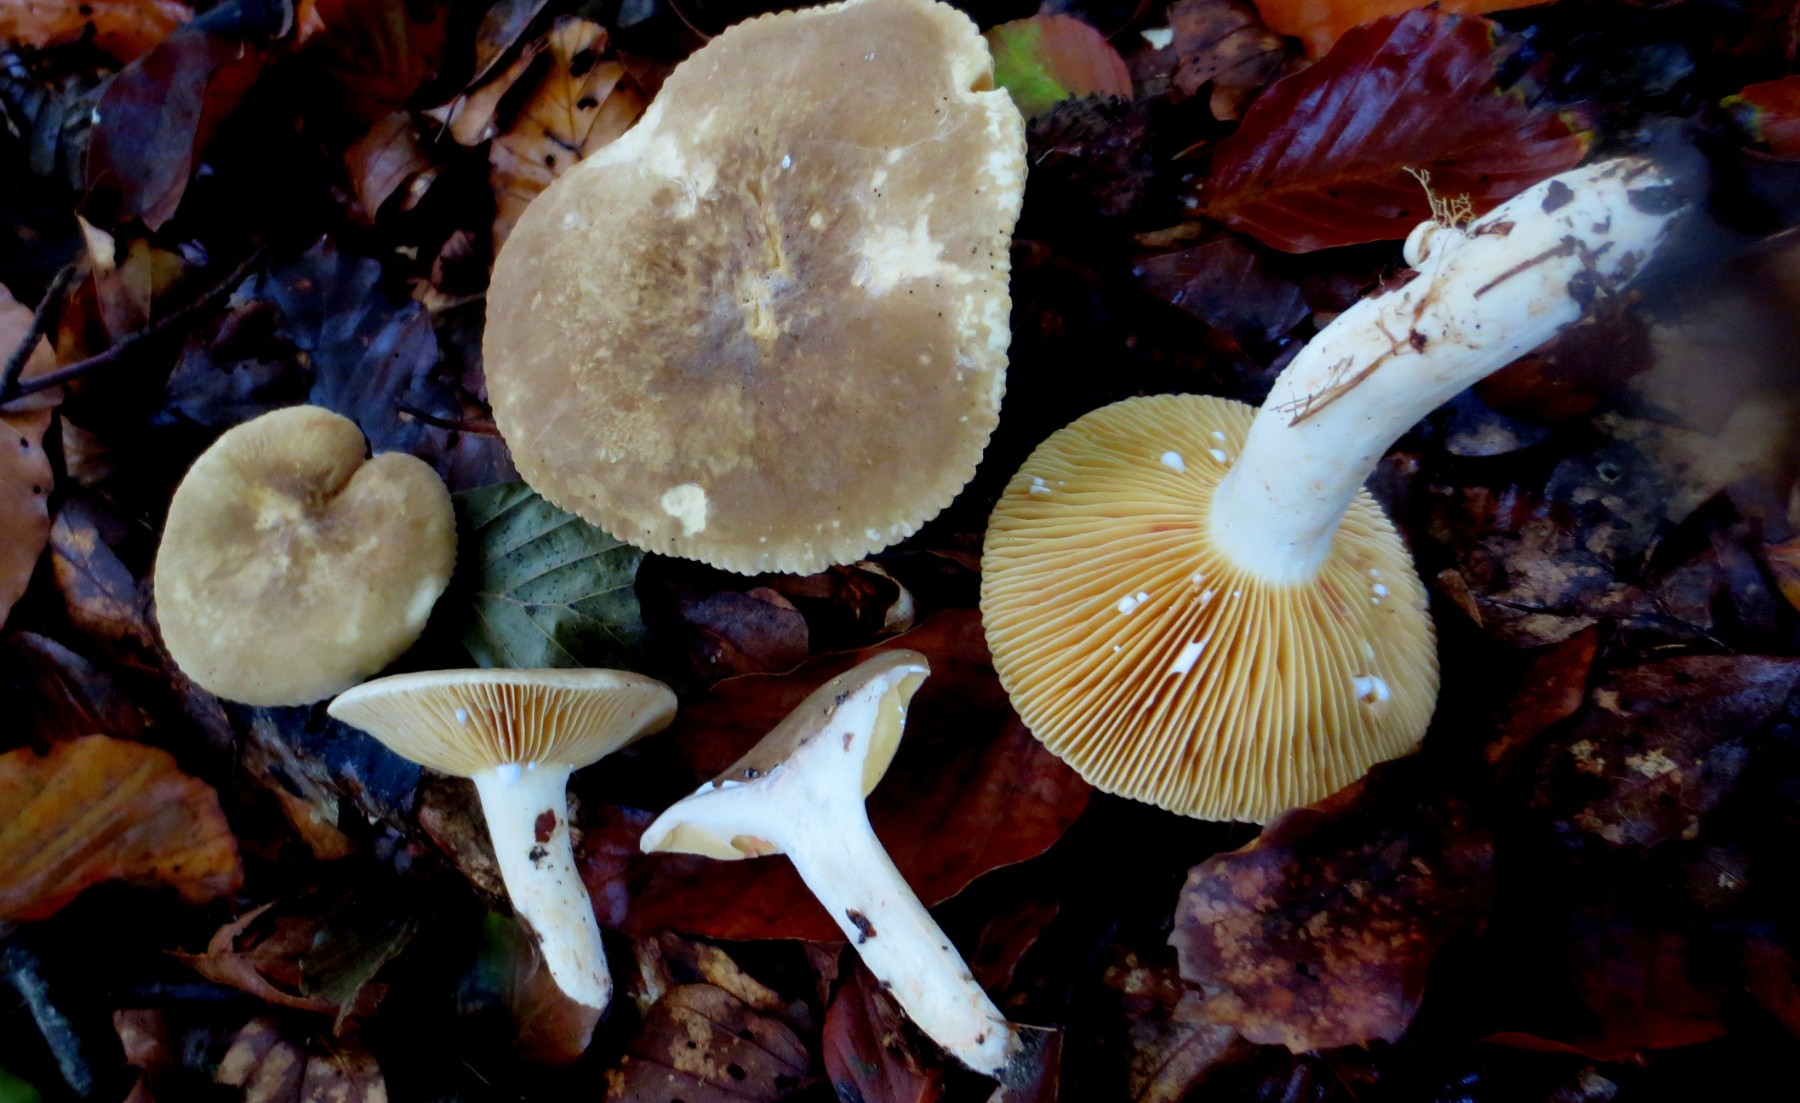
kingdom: Fungi
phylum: Basidiomycota
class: Agaricomycetes
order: Russulales
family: Russulaceae
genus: Lactarius
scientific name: Lactarius romagnesii
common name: fjernbladet mælkehat
